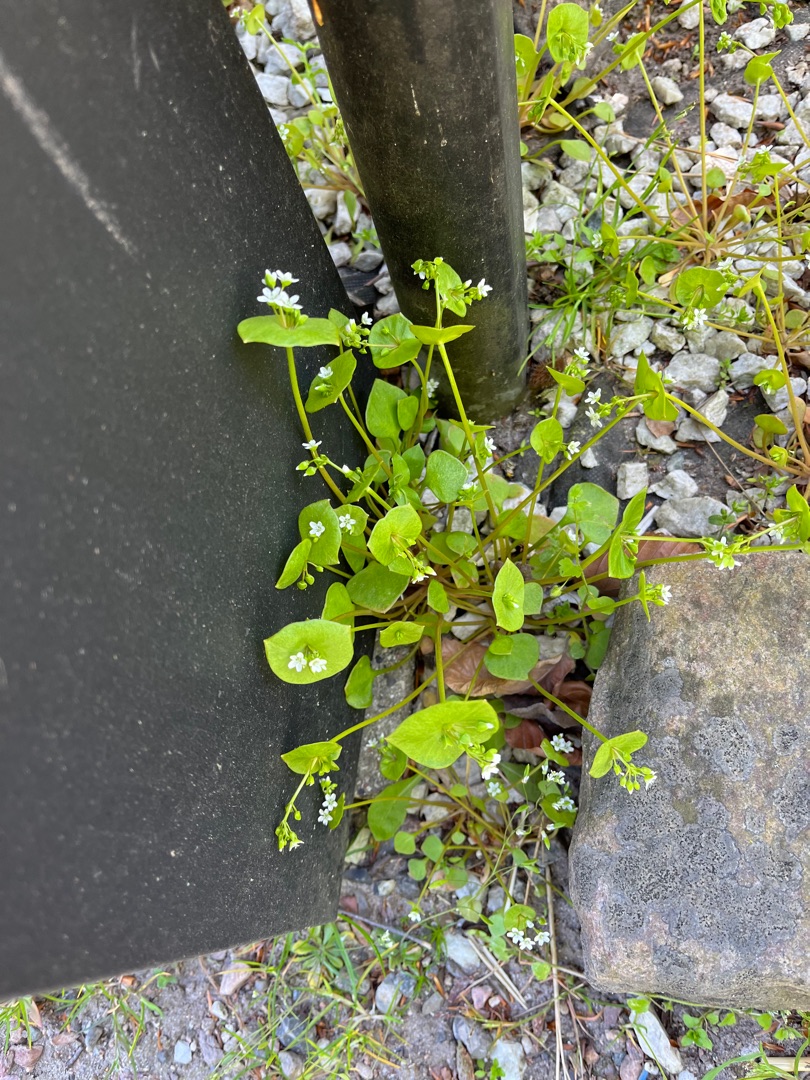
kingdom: Plantae
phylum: Tracheophyta
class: Magnoliopsida
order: Caryophyllales
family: Montiaceae
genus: Claytonia
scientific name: Claytonia perfoliata
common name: Spiselig vinterportulak
